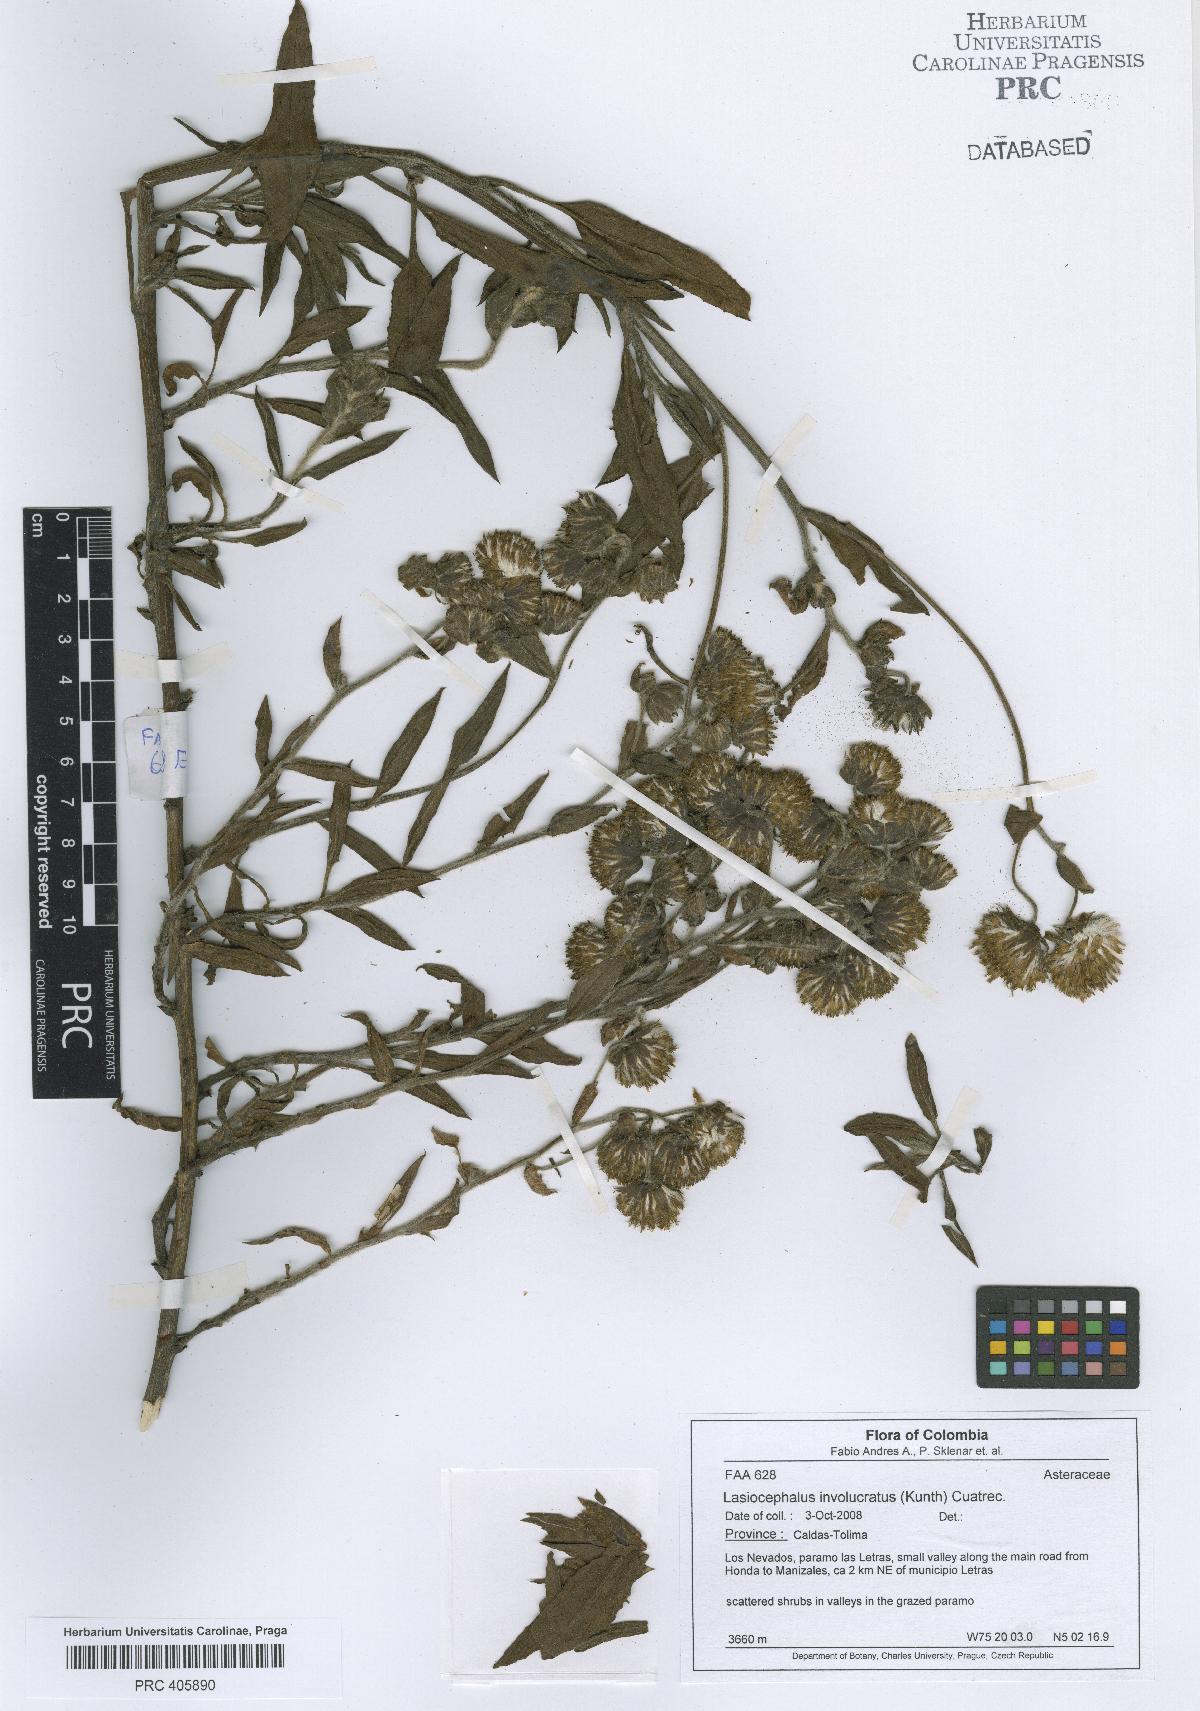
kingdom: Plantae
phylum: Tracheophyta
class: Magnoliopsida
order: Asterales
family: Asteraceae
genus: Aetheolaena
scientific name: Aetheolaena involucrata
